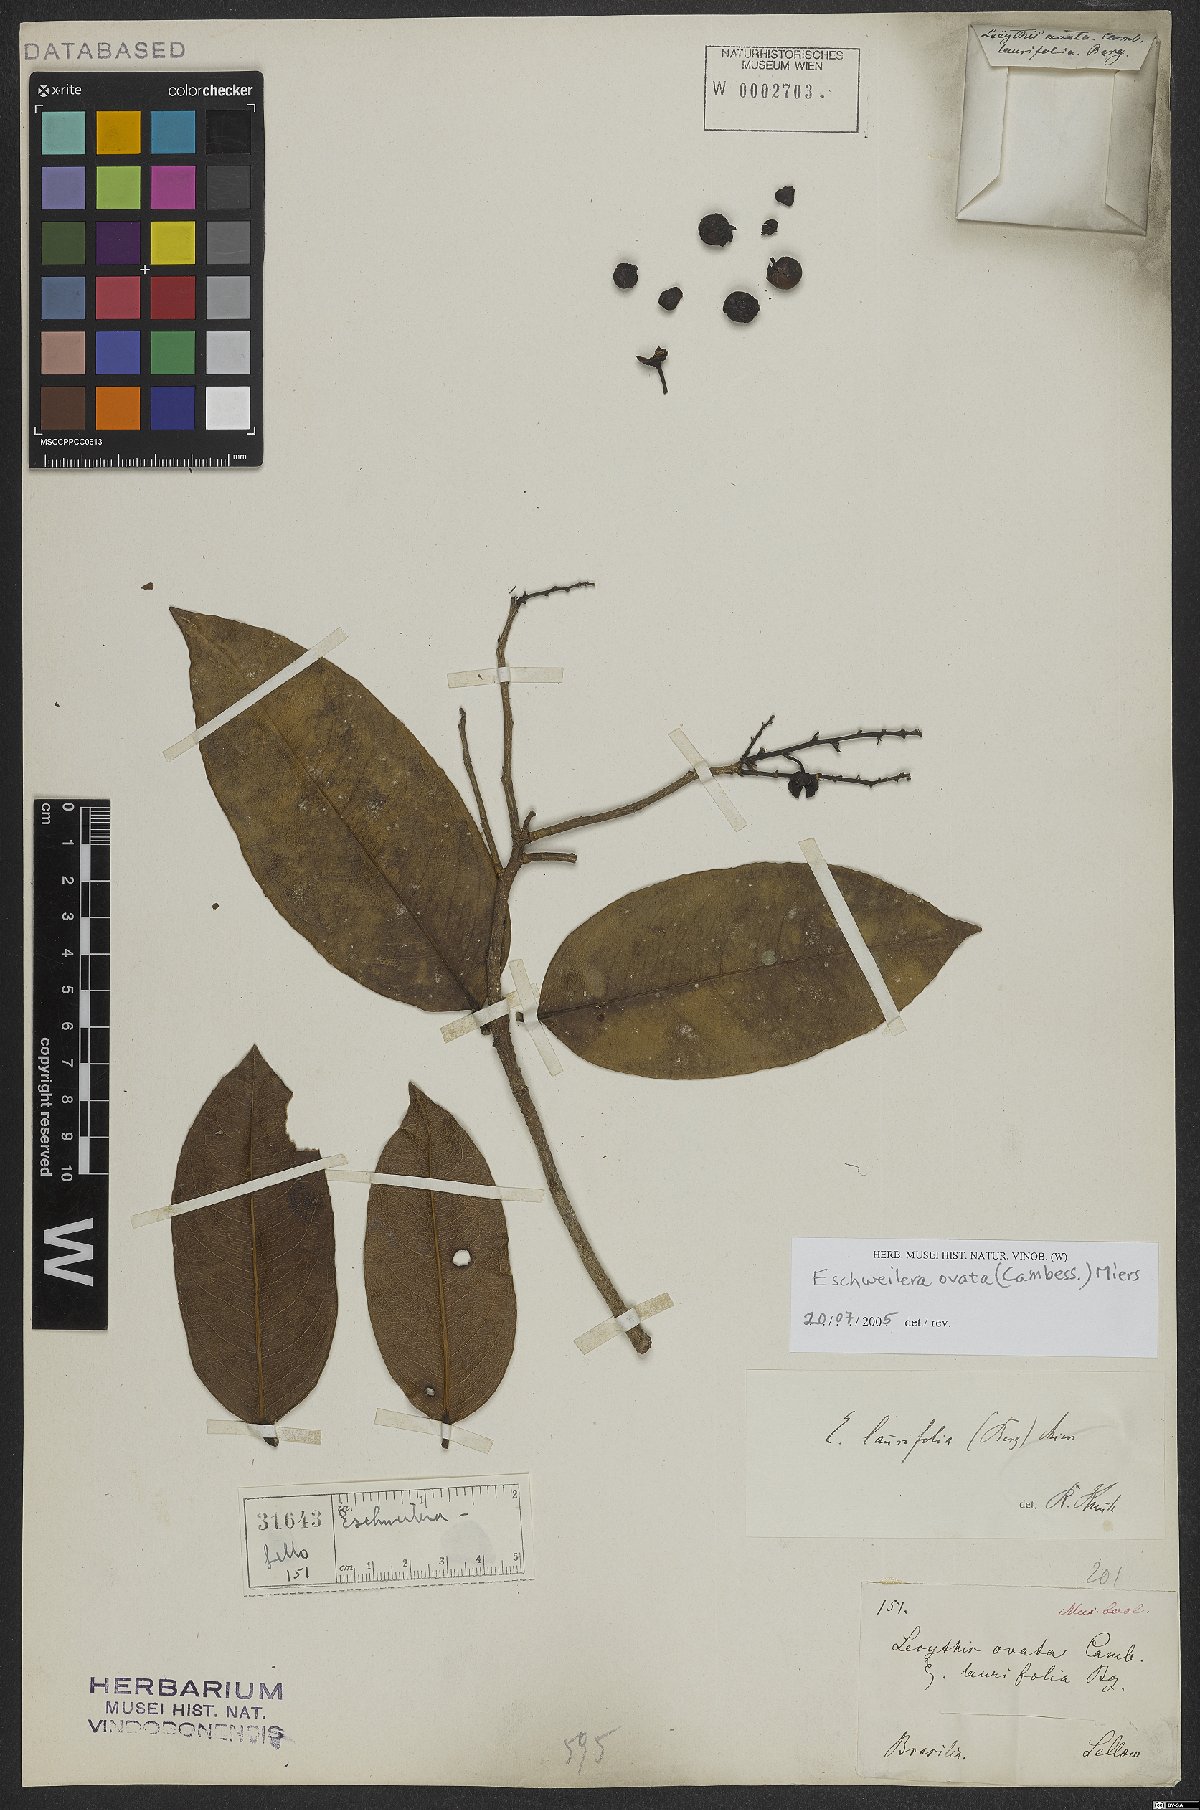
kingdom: Plantae
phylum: Tracheophyta
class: Magnoliopsida
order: Ericales
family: Lecythidaceae
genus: Eschweilera
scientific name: Eschweilera ovata
